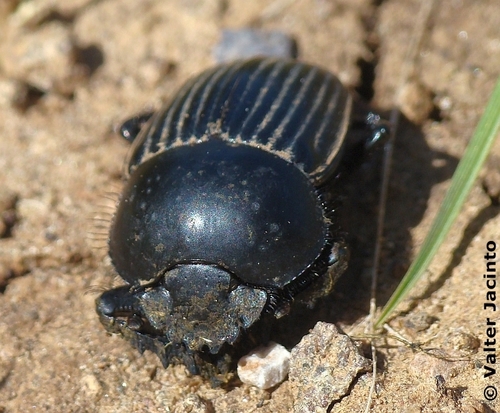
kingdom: Animalia
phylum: Arthropoda
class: Insecta
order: Coleoptera
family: Scarabaeidae
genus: Ateuchetus
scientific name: Ateuchetus laticollis
